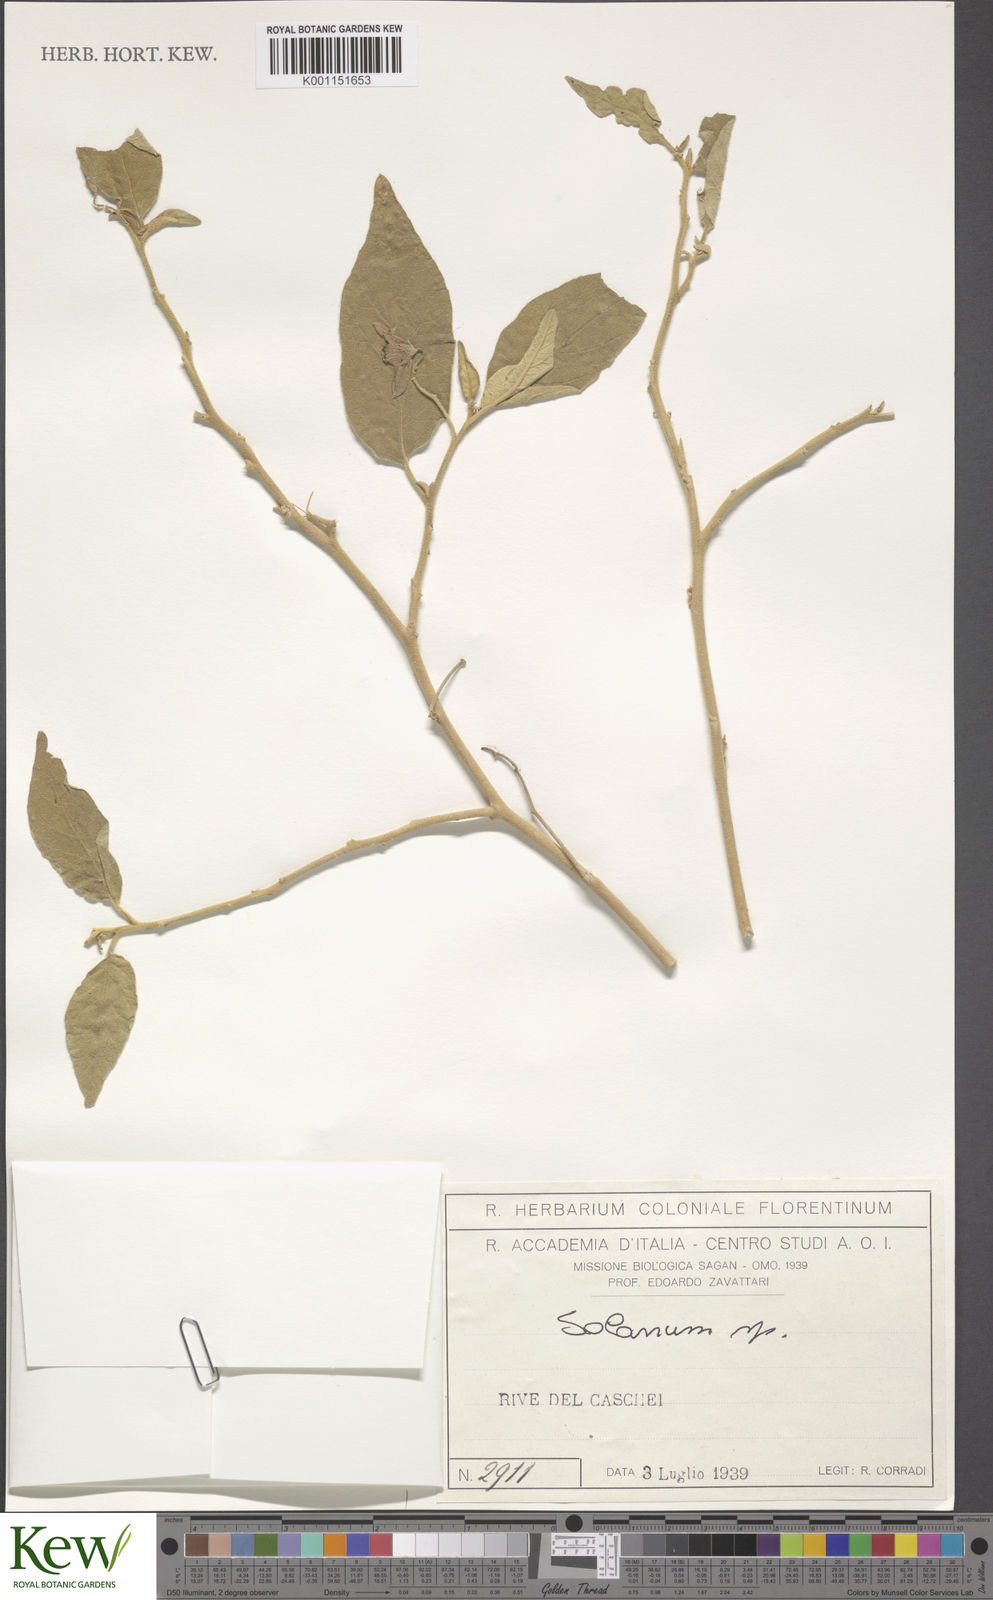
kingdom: Plantae
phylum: Tracheophyta
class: Magnoliopsida
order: Solanales
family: Solanaceae
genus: Solanum
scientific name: Solanum
